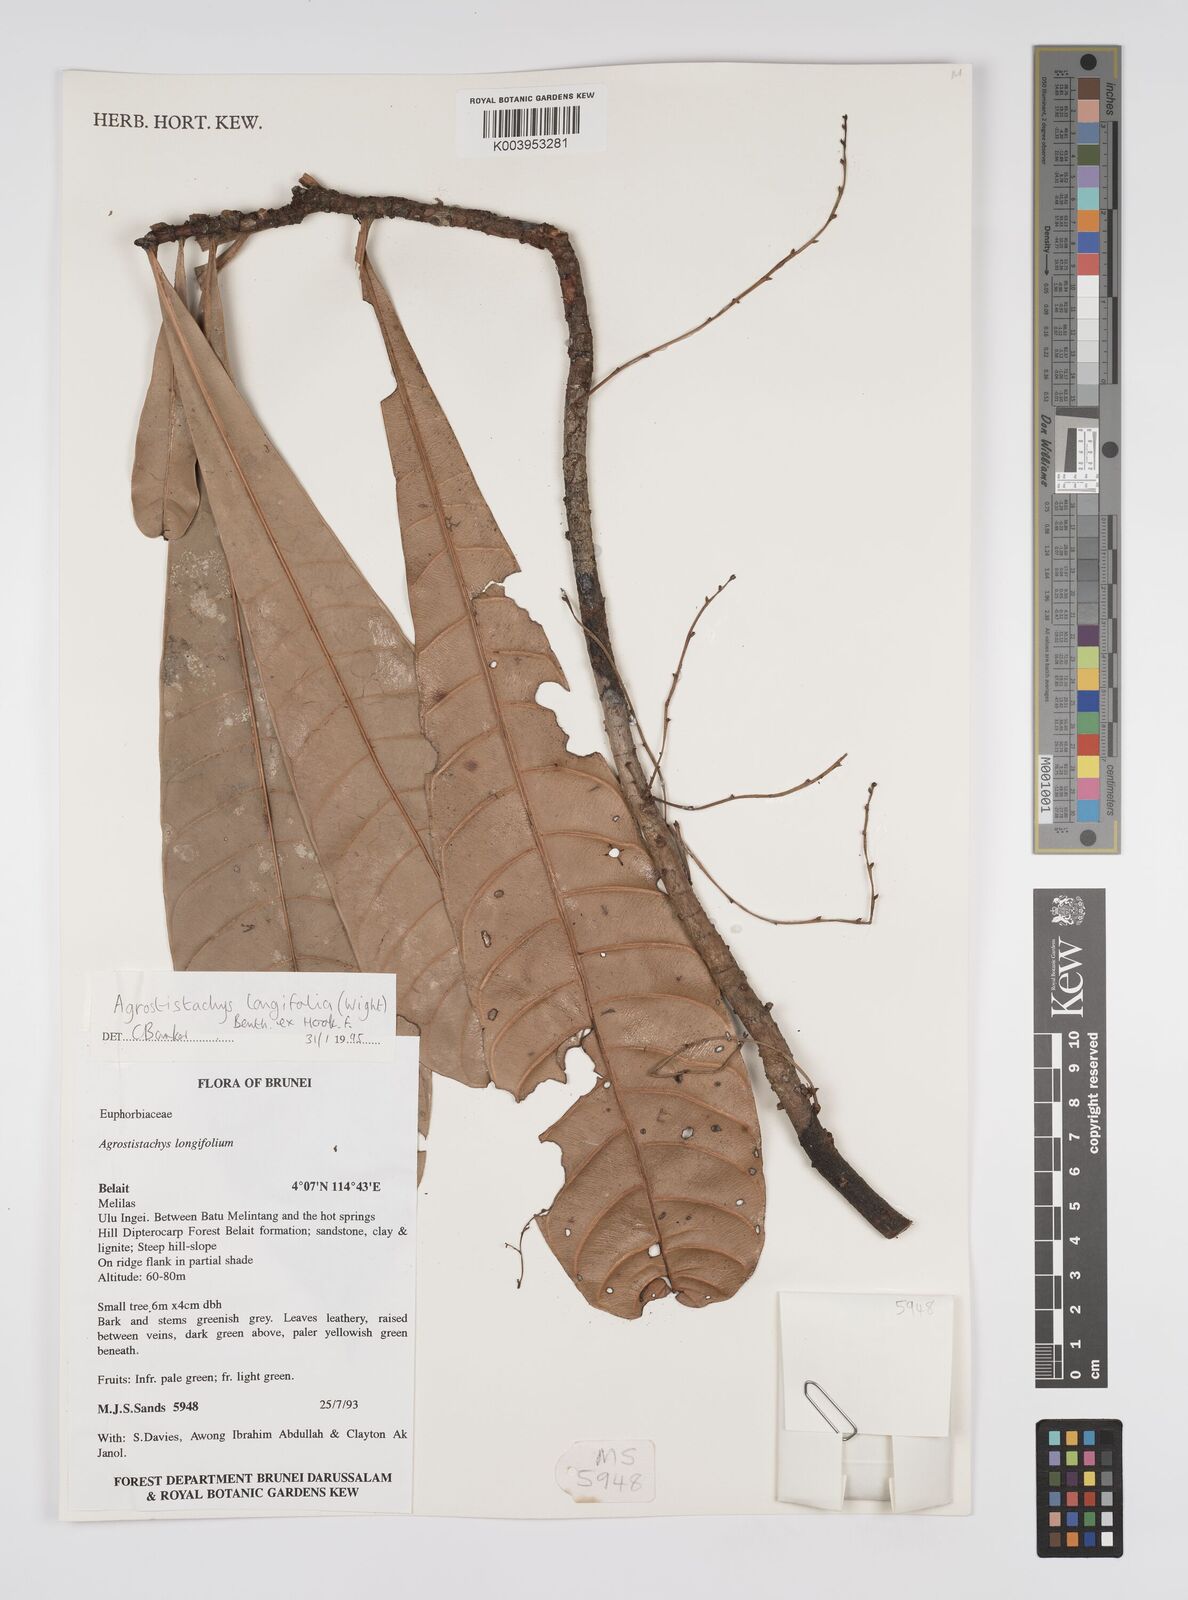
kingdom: Plantae
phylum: Tracheophyta
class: Magnoliopsida
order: Malpighiales
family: Euphorbiaceae
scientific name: Euphorbiaceae
